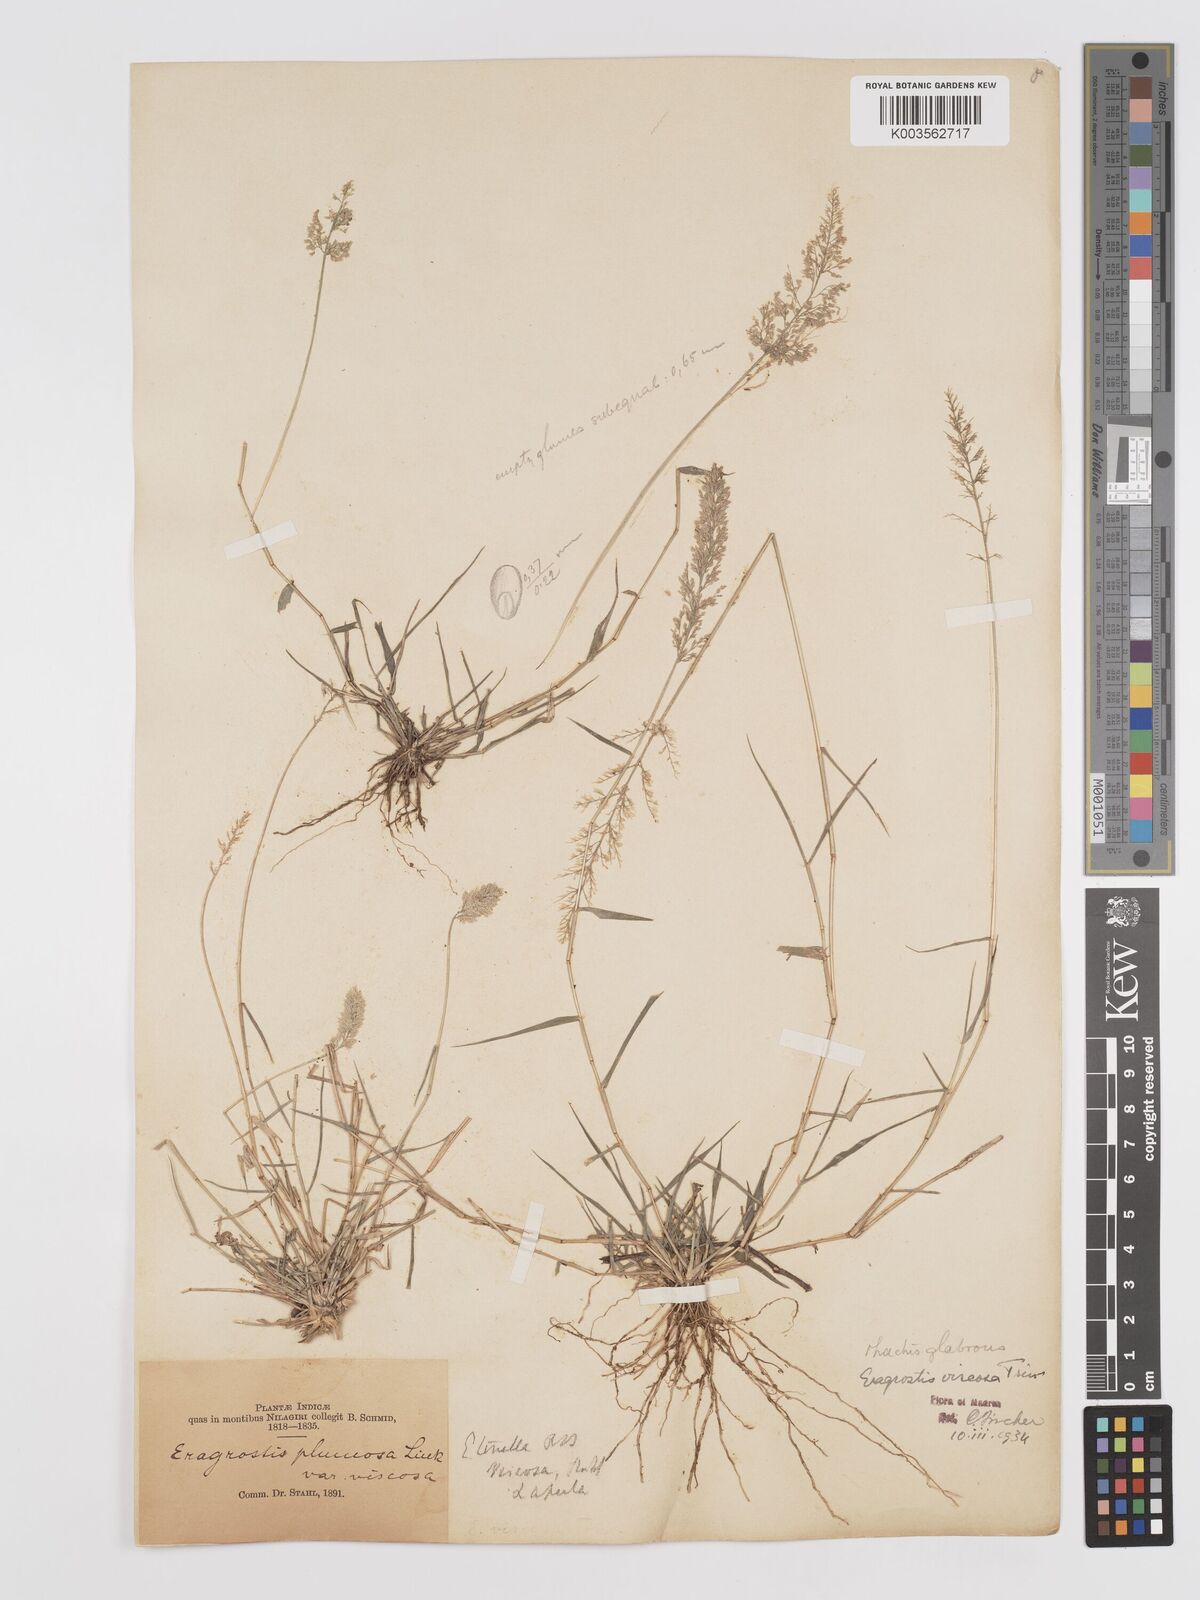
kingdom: Plantae
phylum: Tracheophyta
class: Liliopsida
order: Poales
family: Poaceae
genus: Eragrostis
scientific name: Eragrostis riparia
